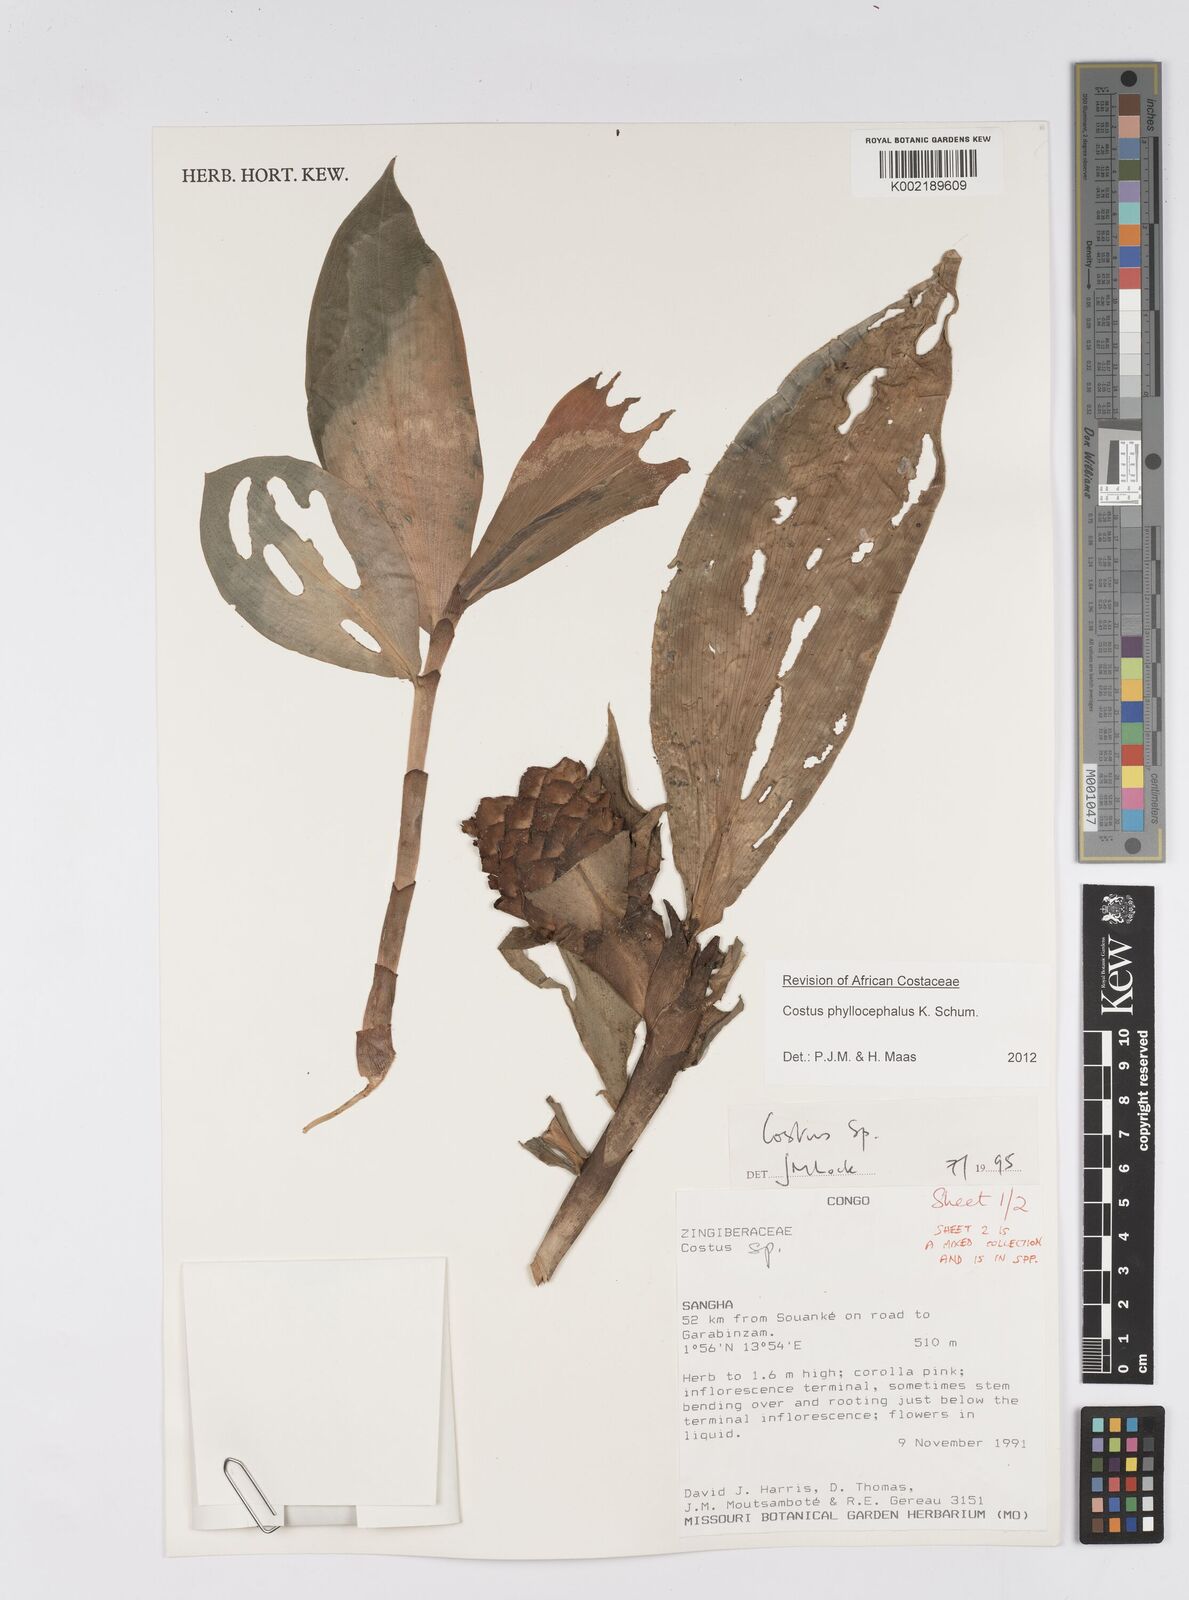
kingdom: Plantae
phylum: Tracheophyta
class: Liliopsida
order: Zingiberales
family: Costaceae
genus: Costus
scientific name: Costus phyllocephalus
